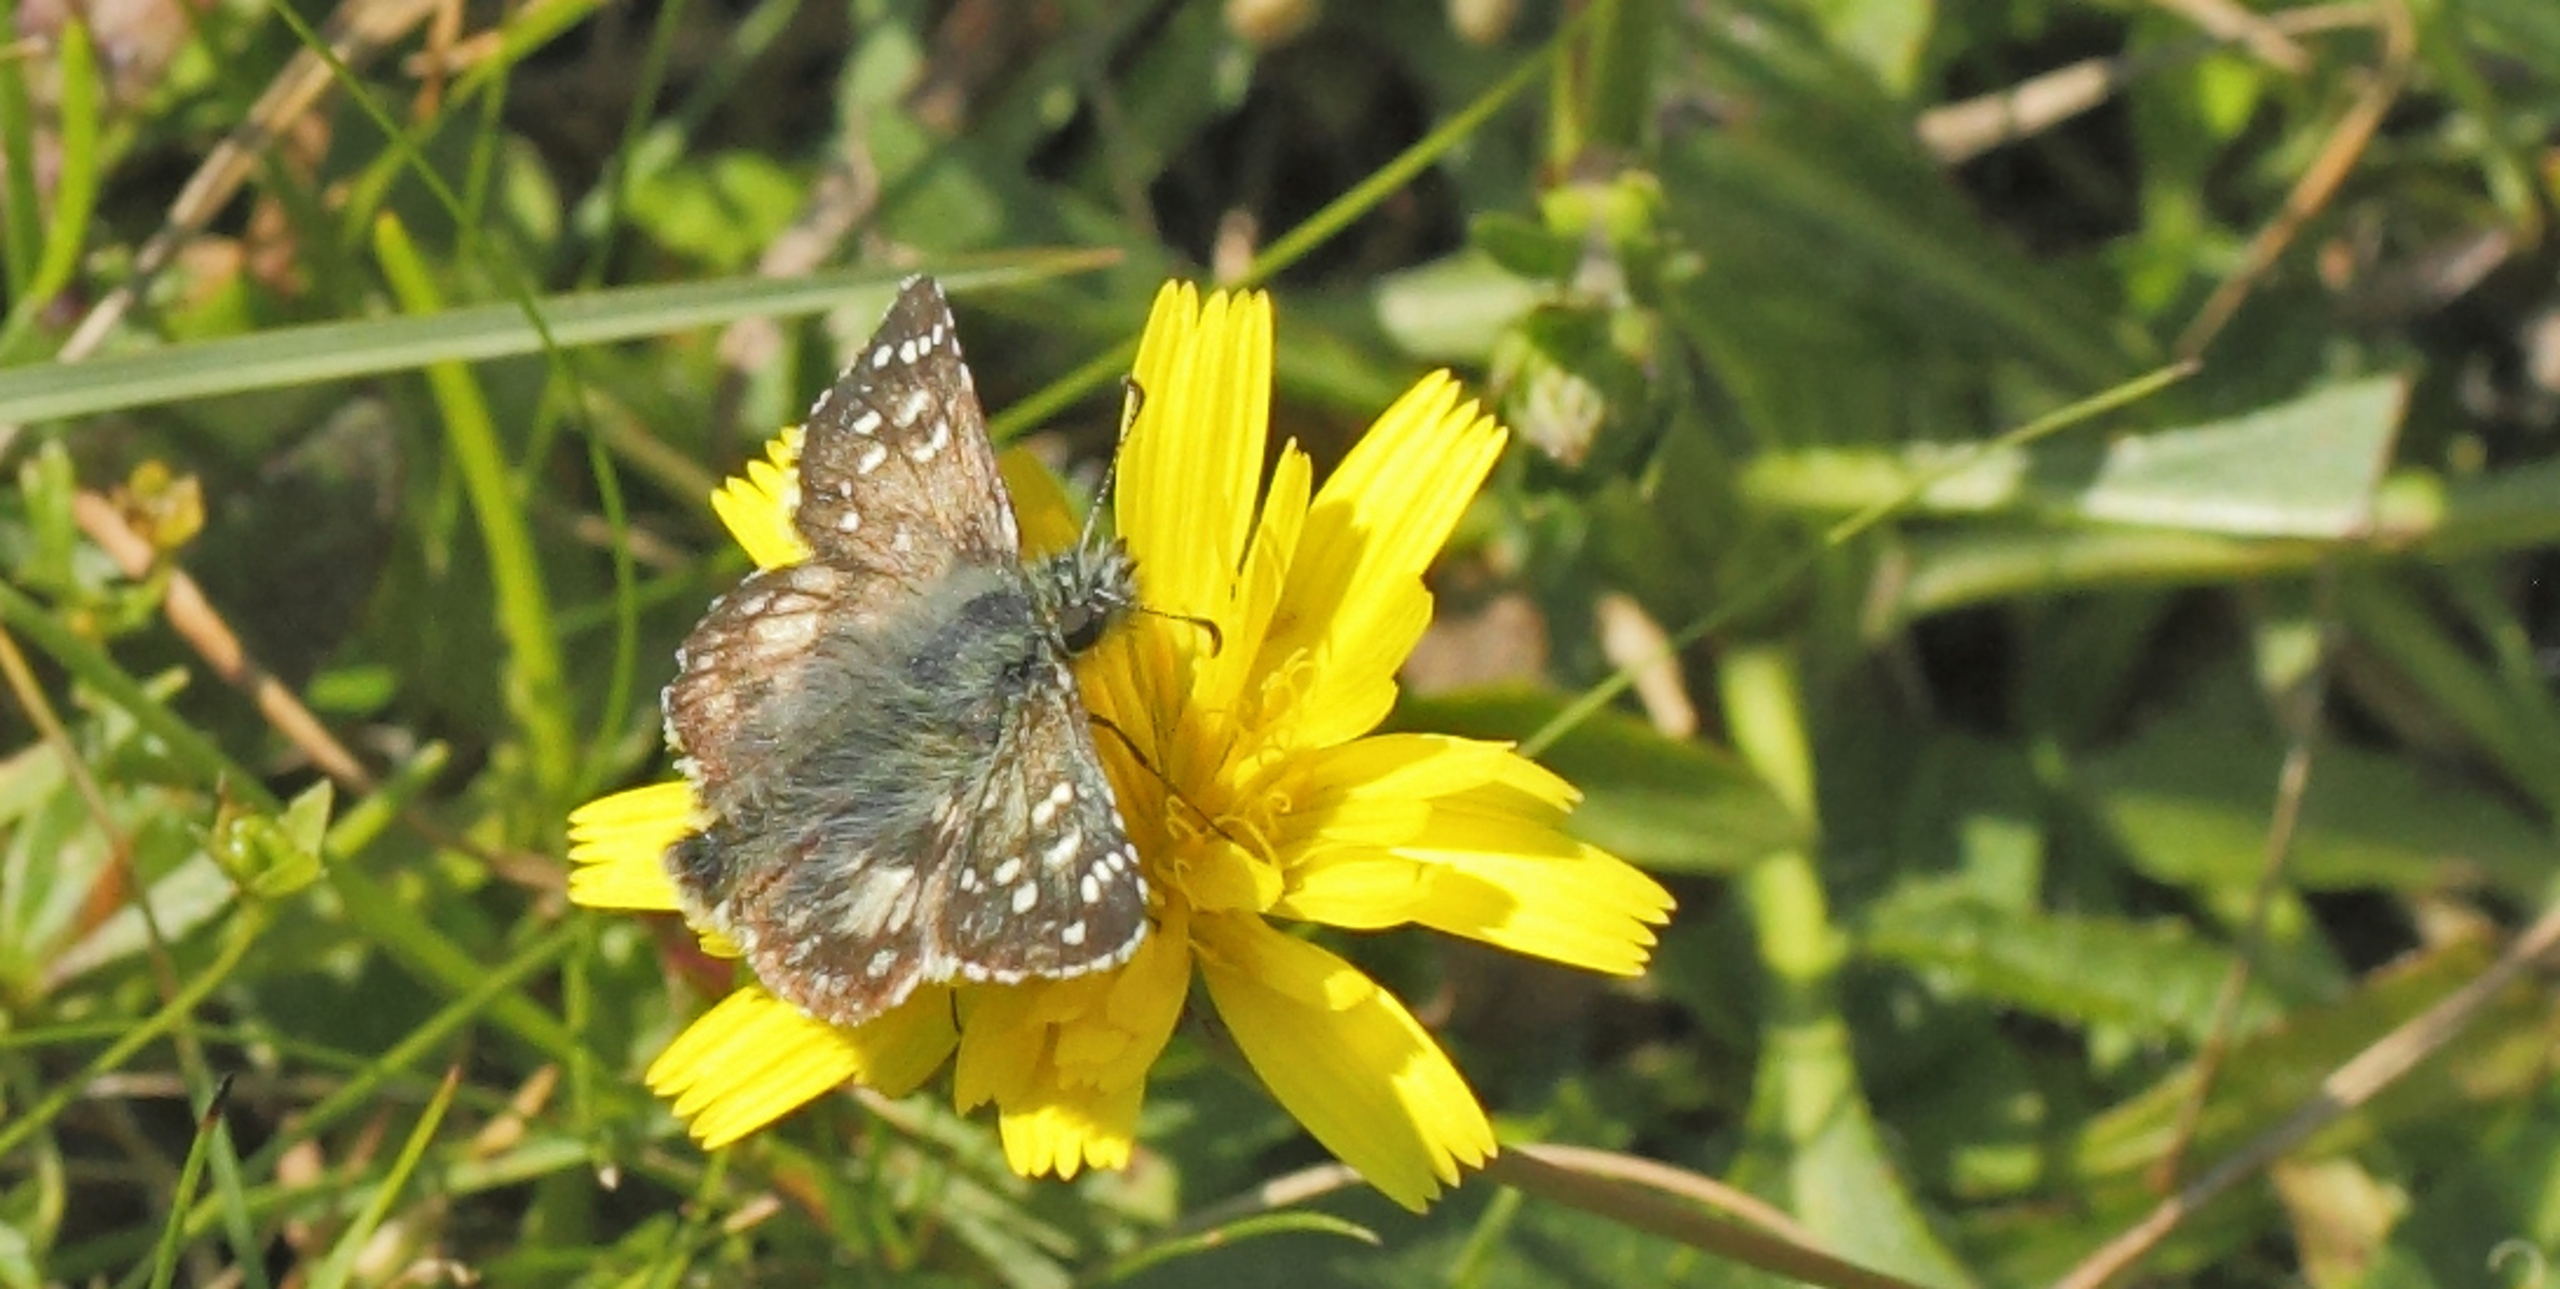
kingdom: Animalia
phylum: Arthropoda
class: Insecta
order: Lepidoptera
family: Hesperiidae
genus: Pyrgus
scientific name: Pyrgus armoricanus
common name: Fransk bredpande
